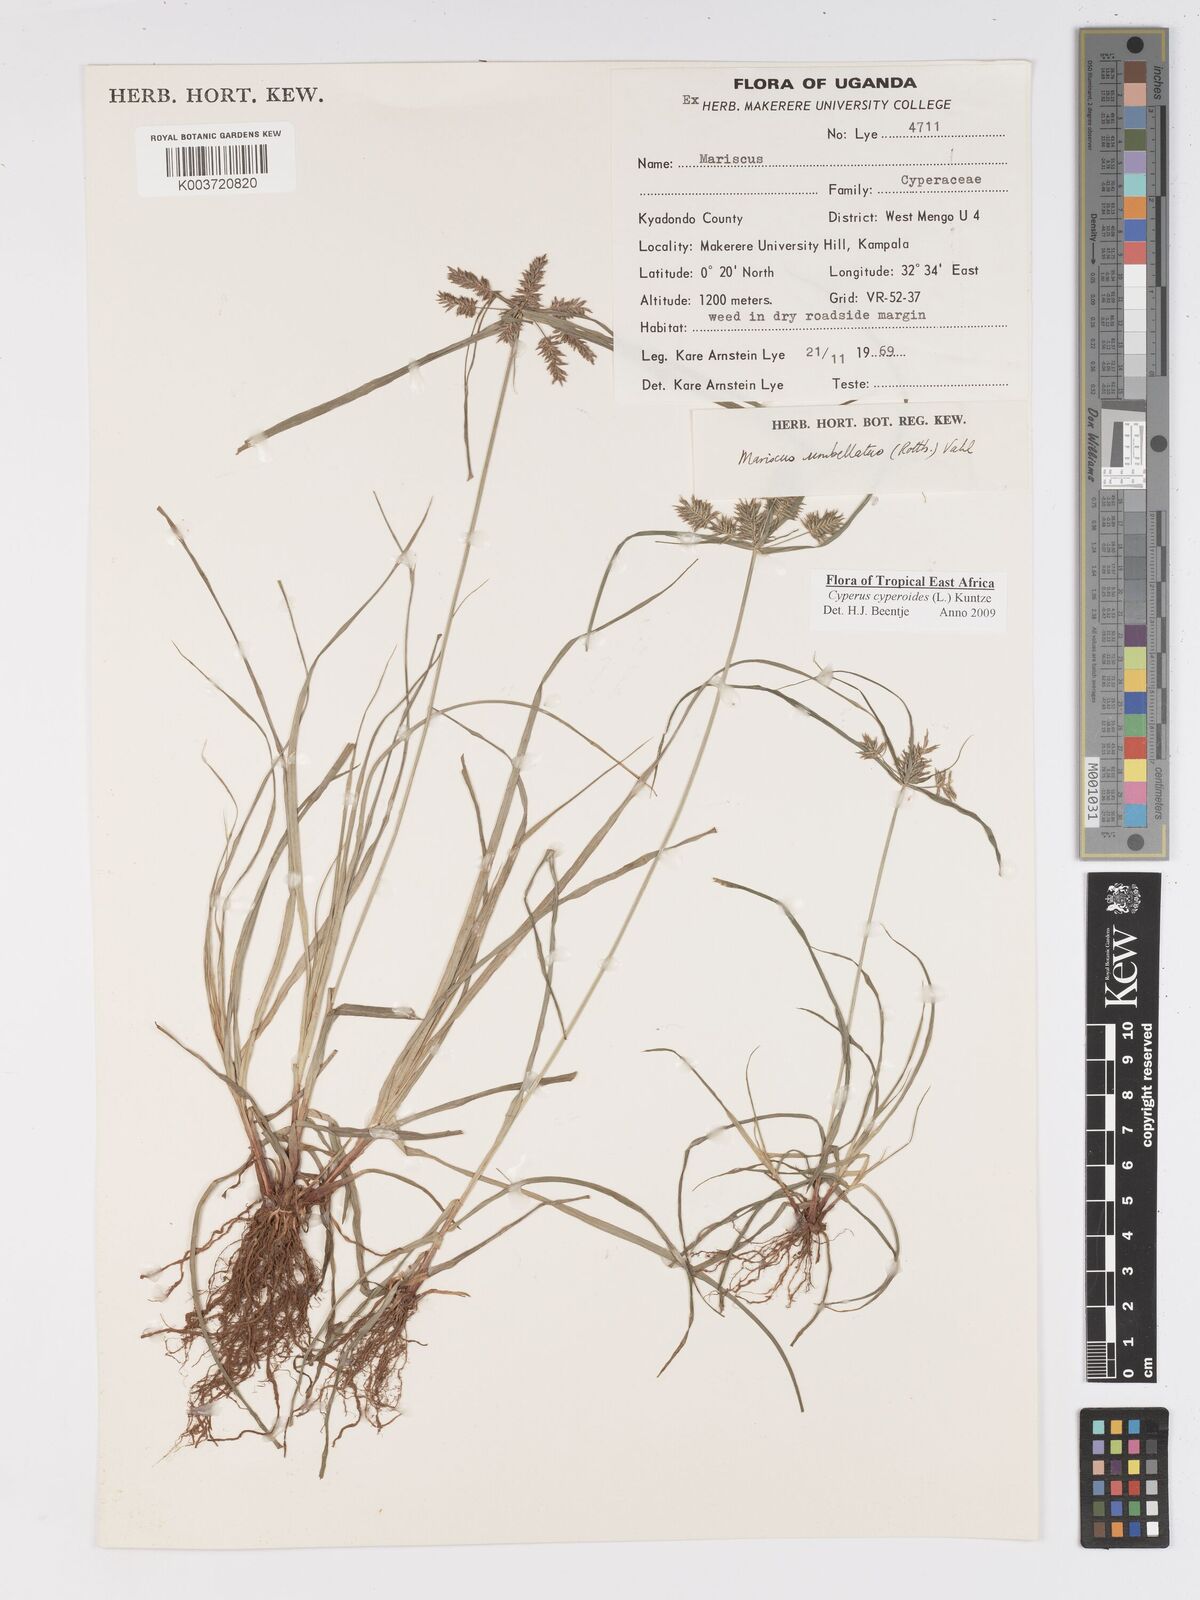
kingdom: Plantae
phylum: Tracheophyta
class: Liliopsida
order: Poales
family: Cyperaceae
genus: Cyperus
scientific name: Cyperus cyperoides
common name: Pacific island flat sedge
